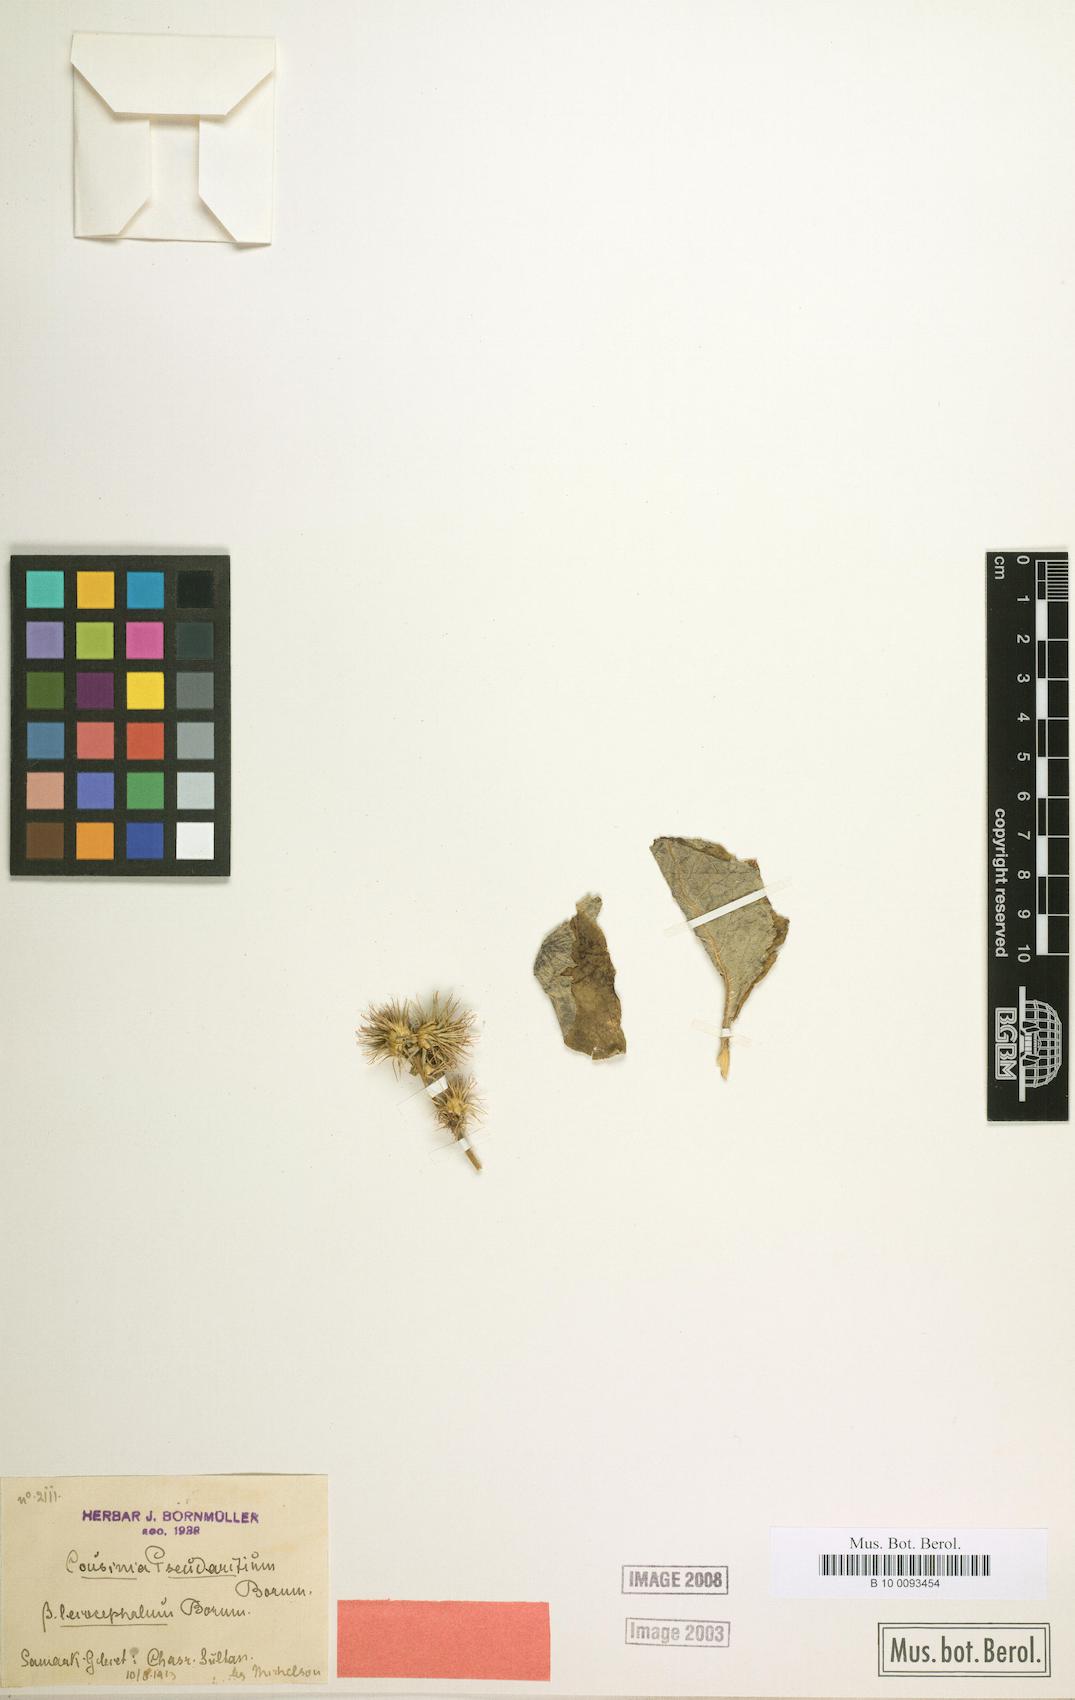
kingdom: Plantae
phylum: Tracheophyta
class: Magnoliopsida
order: Asterales
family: Asteraceae
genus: Arctium
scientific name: Arctium pseudarctium
